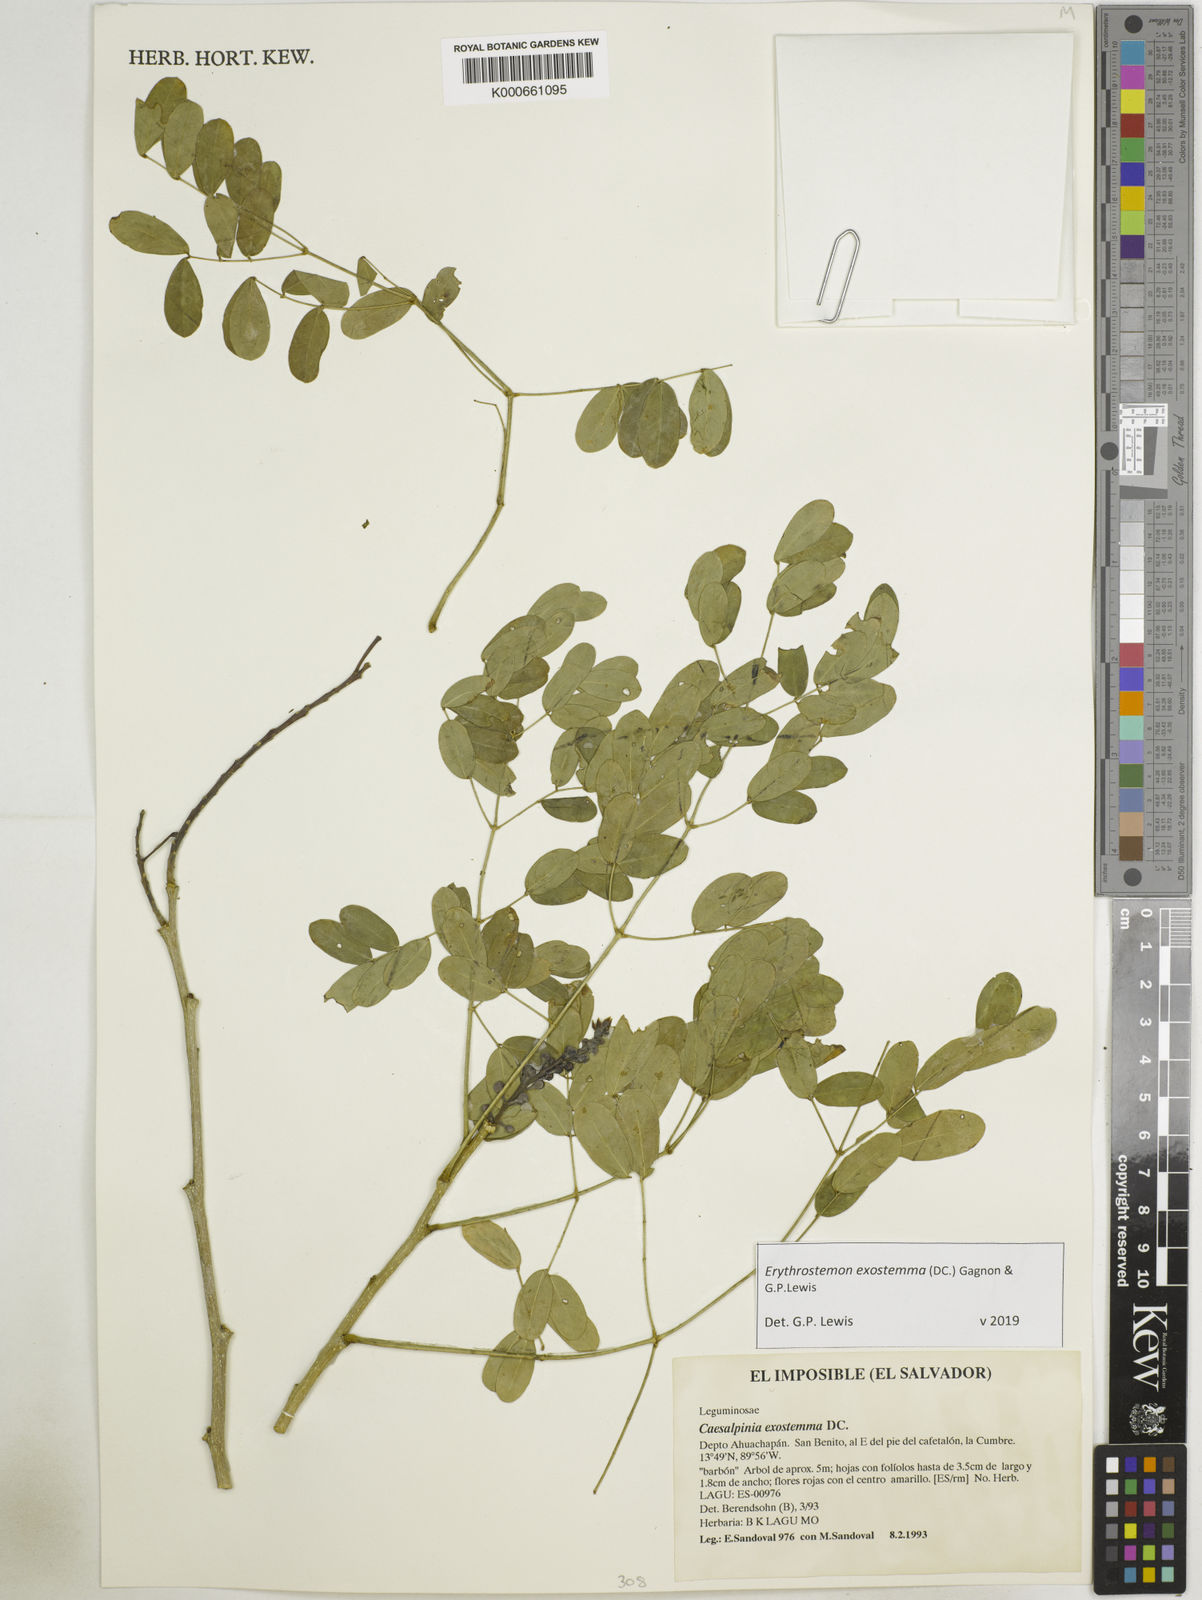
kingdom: Plantae
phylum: Tracheophyta
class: Magnoliopsida
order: Fabales
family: Fabaceae
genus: Erythrostemon
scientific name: Erythrostemon exostemma
